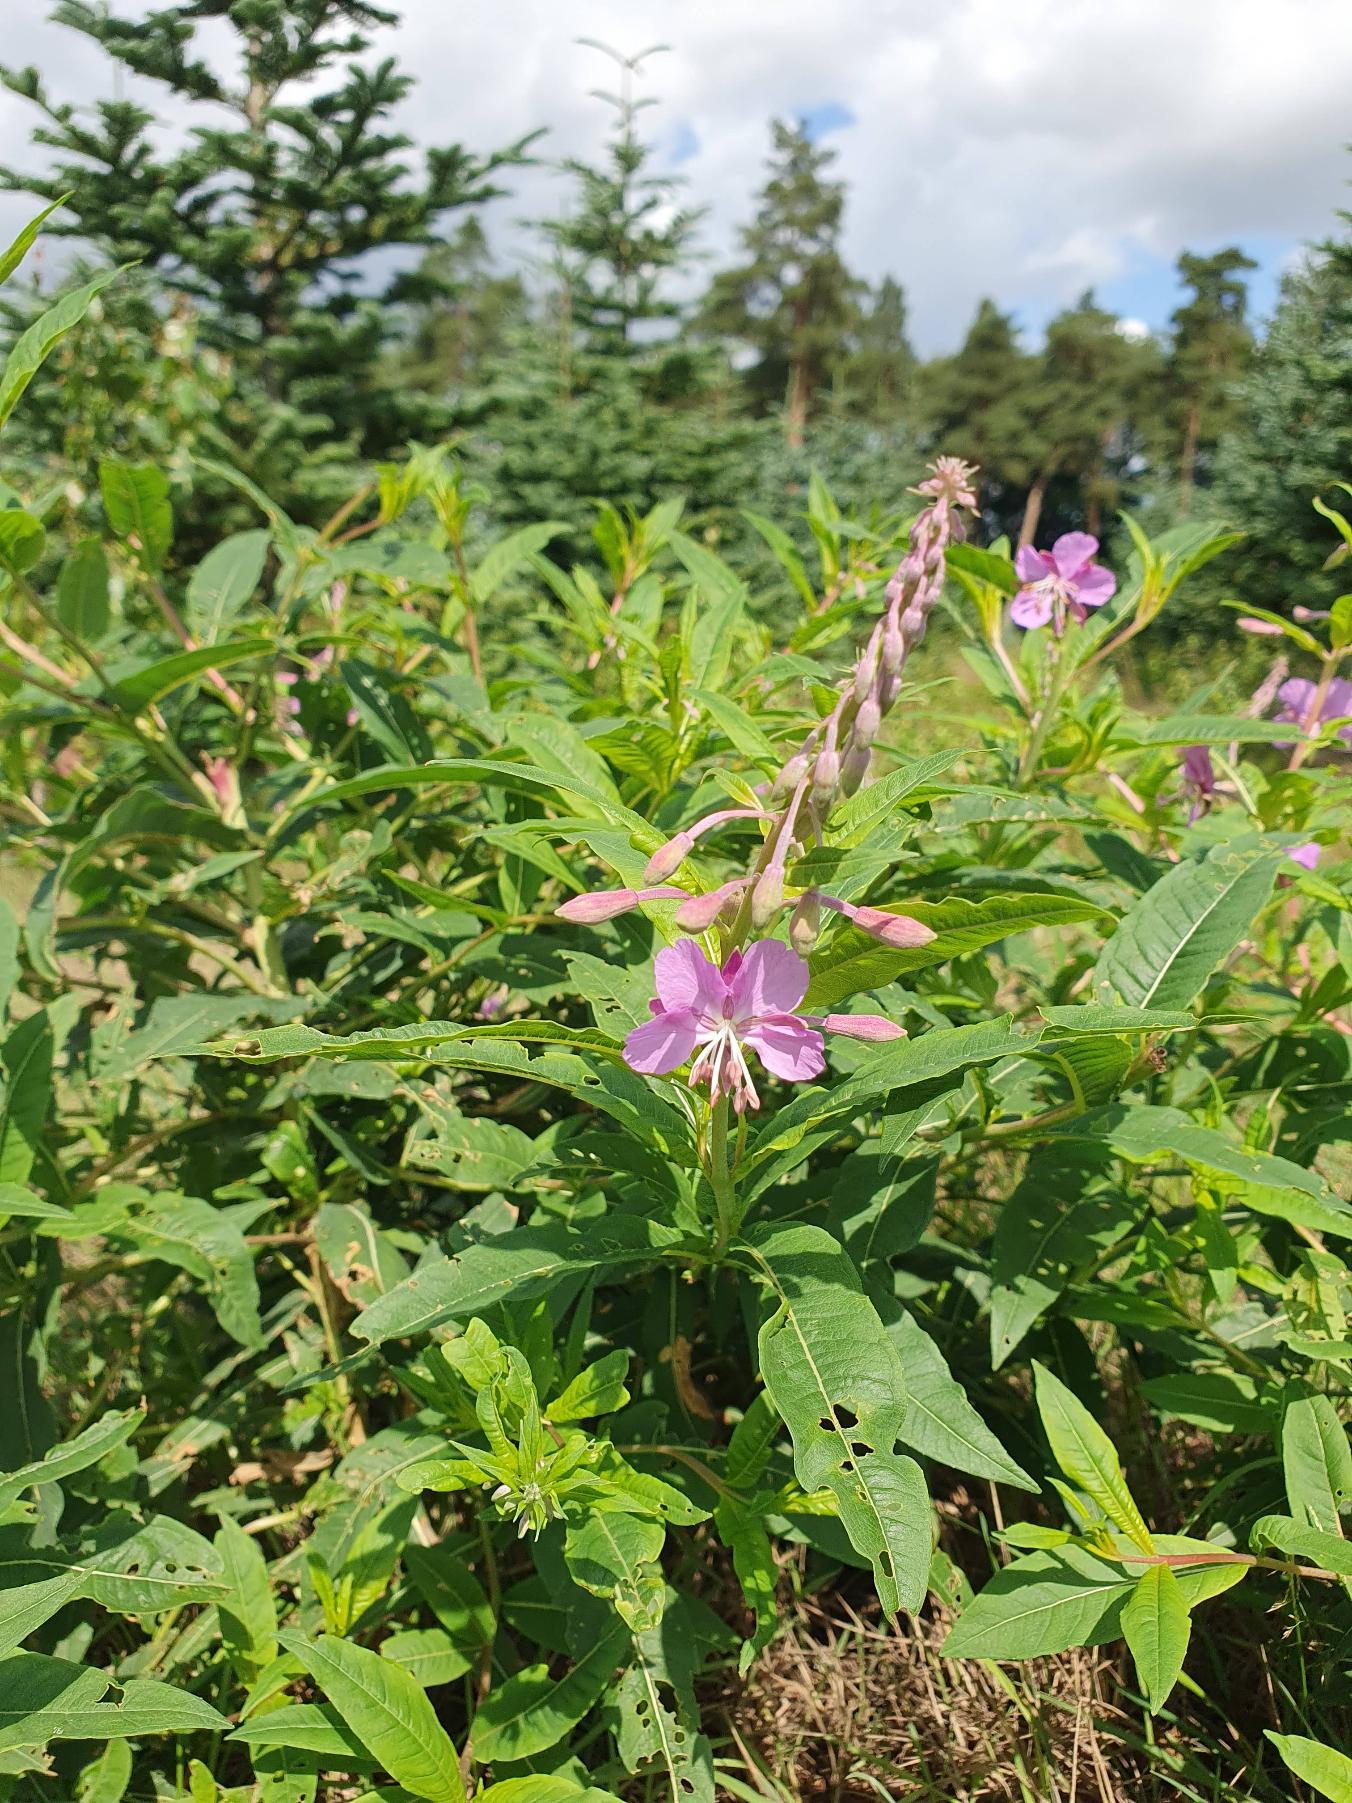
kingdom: Plantae
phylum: Tracheophyta
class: Magnoliopsida
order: Myrtales
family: Onagraceae
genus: Chamaenerion
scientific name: Chamaenerion angustifolium
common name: Gederams
